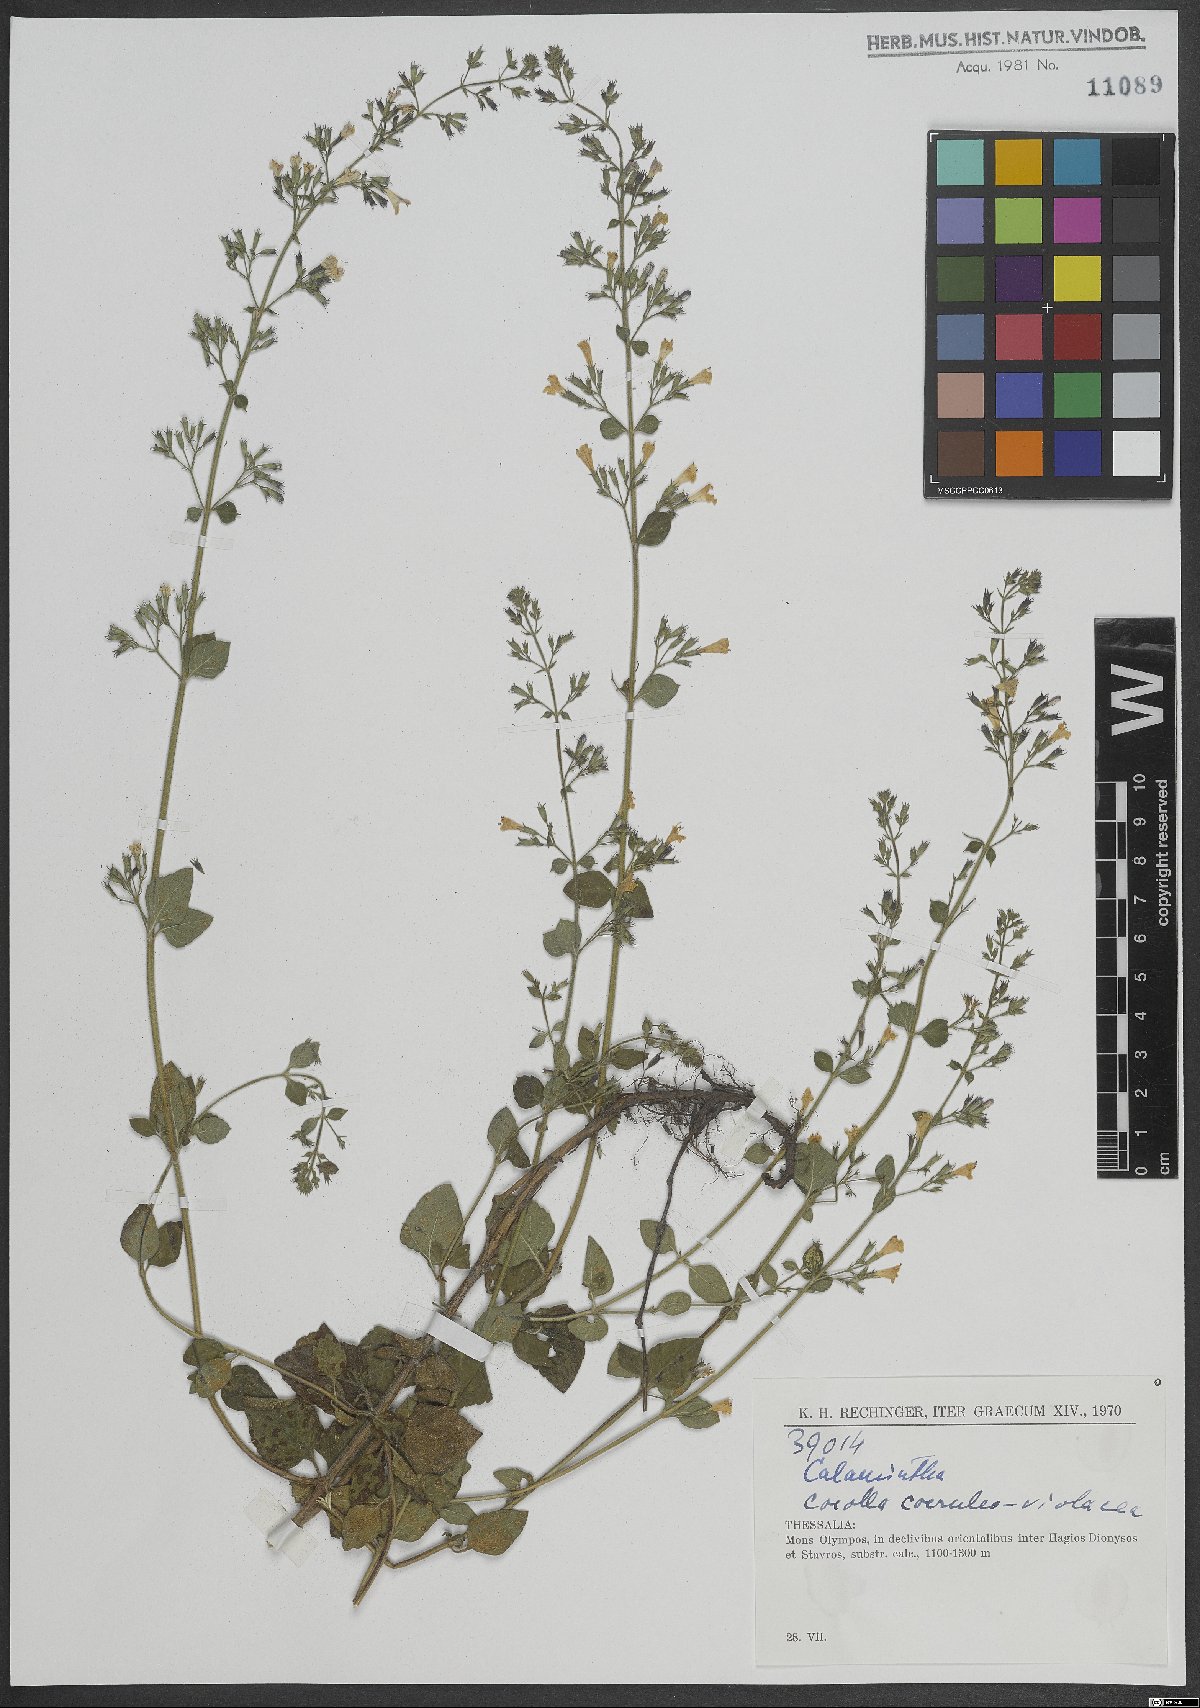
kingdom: Plantae
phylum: Tracheophyta
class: Magnoliopsida
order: Lamiales
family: Lamiaceae
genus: Calamintha
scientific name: Calamintha
